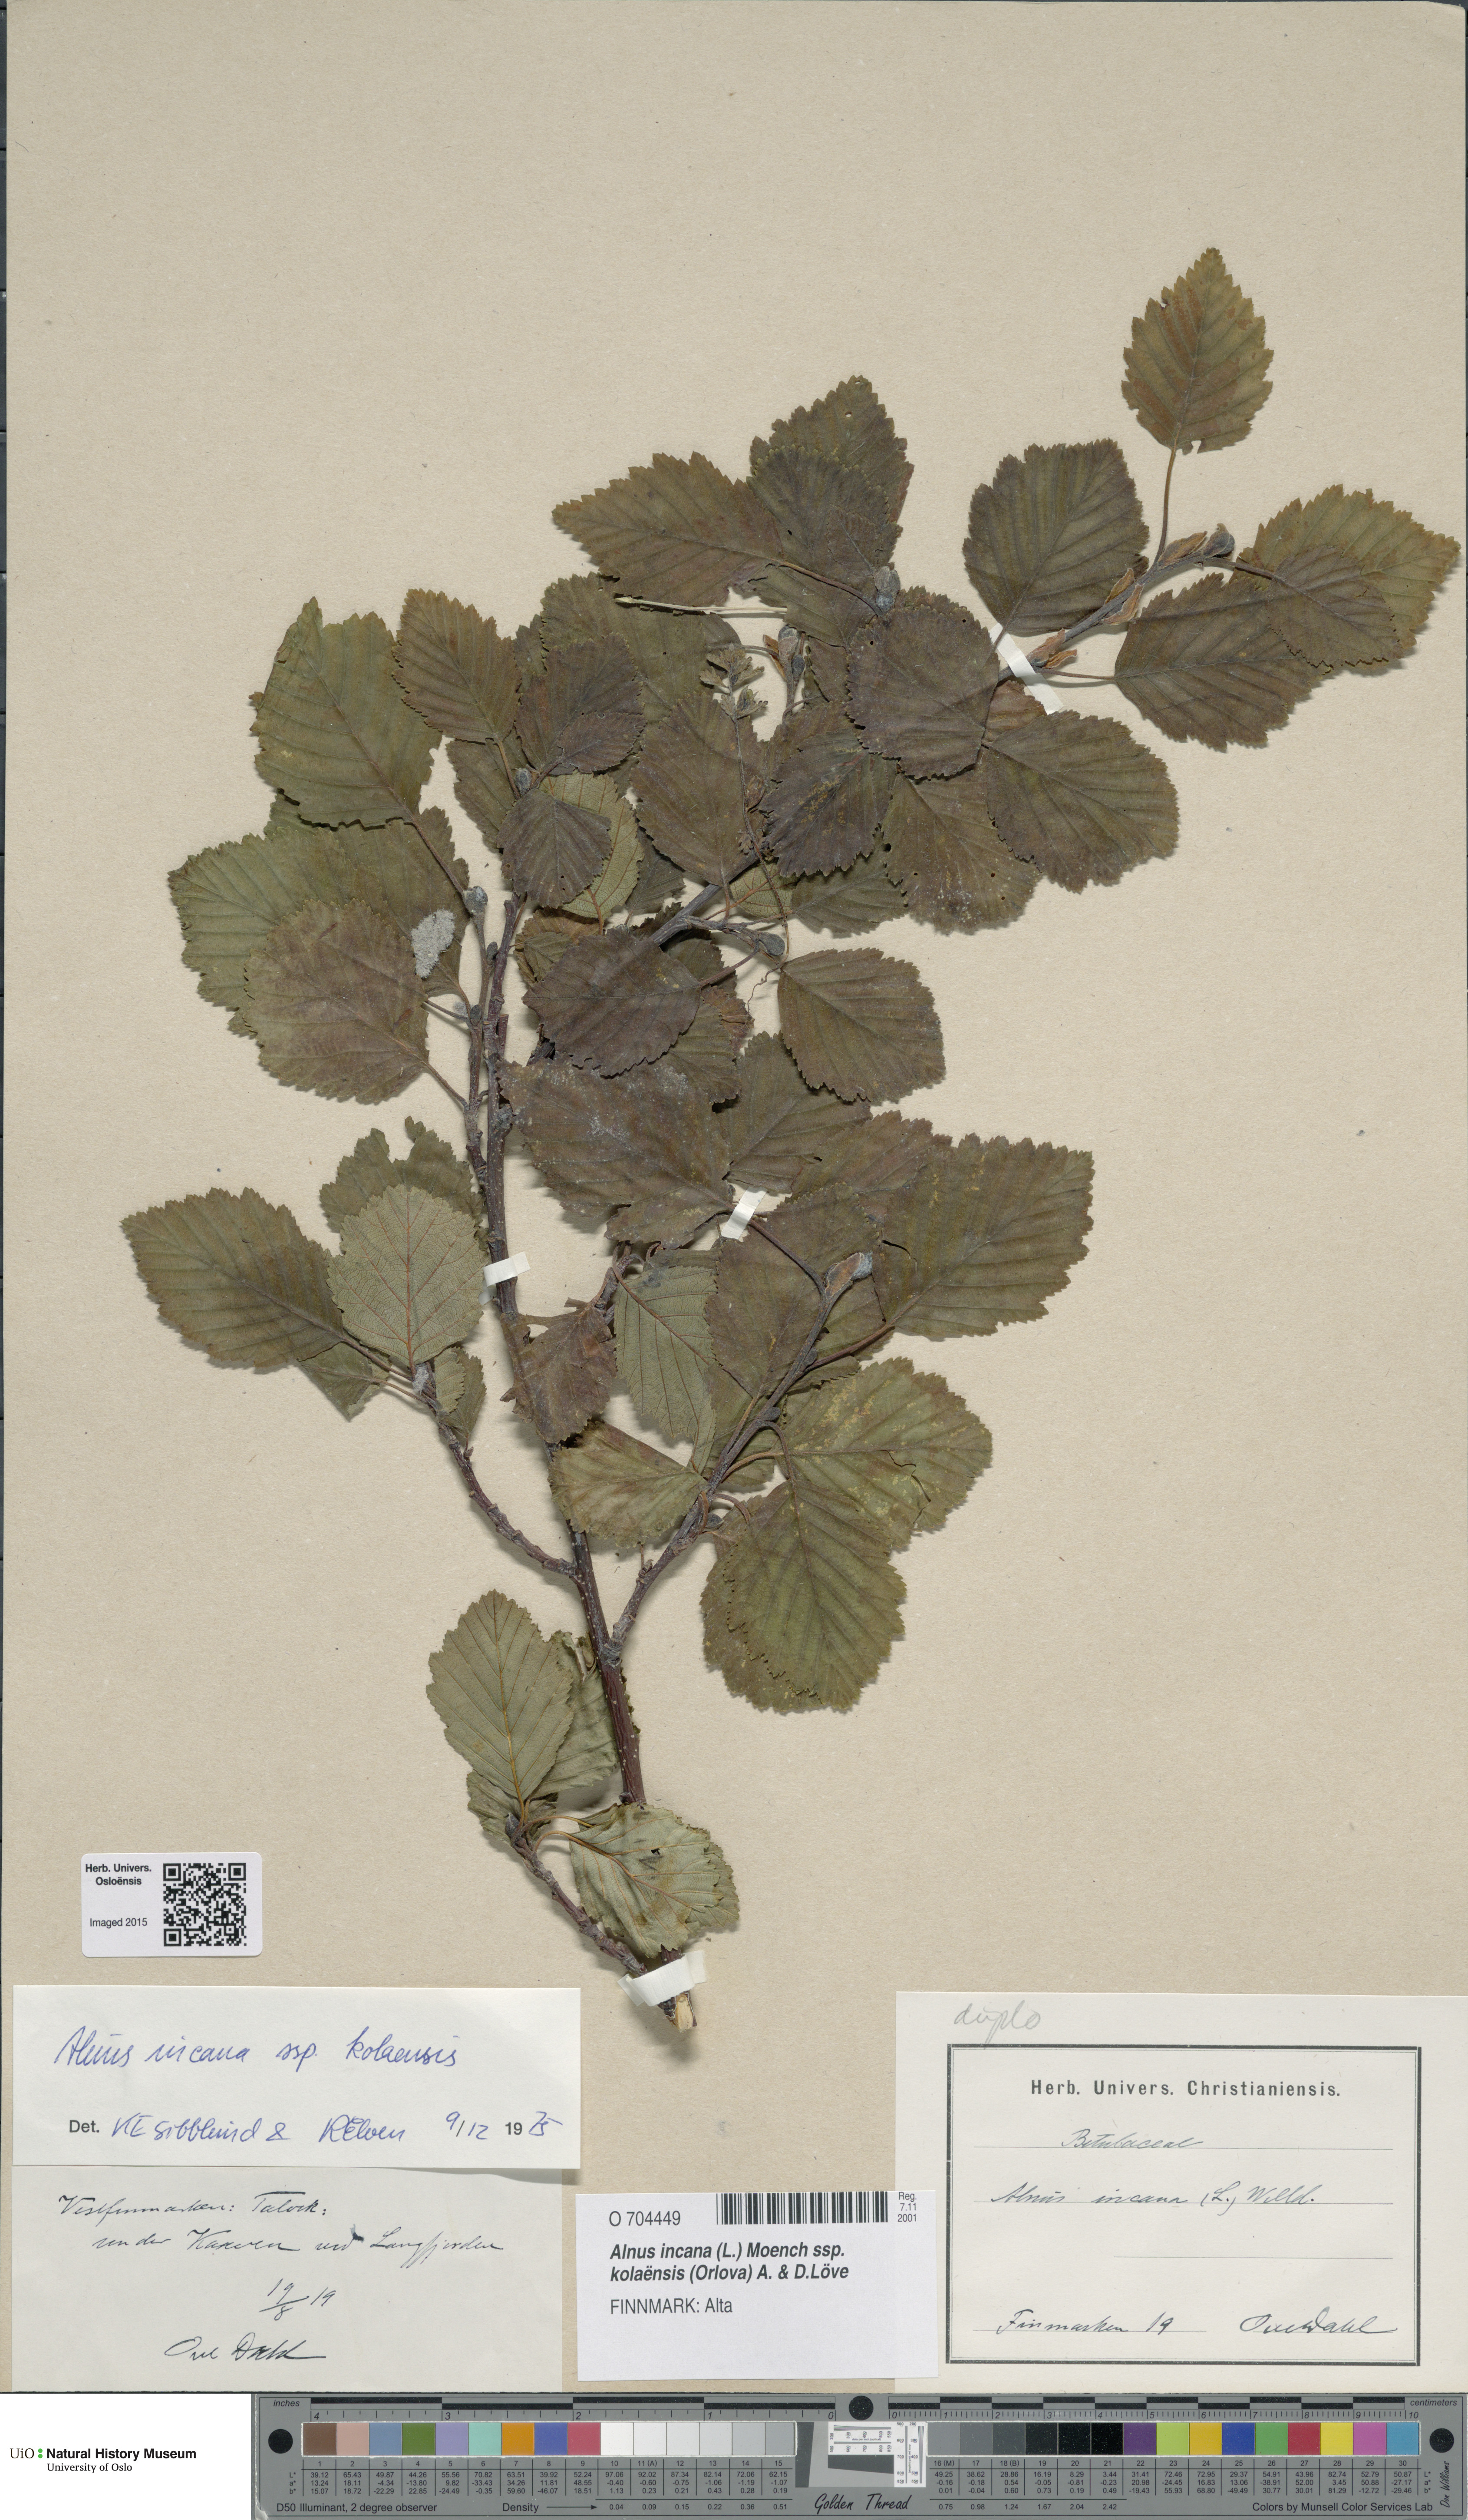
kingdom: Plantae
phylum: Tracheophyta
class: Magnoliopsida
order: Fagales
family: Betulaceae
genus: Alnus
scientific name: Alnus incana
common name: Grey alder
